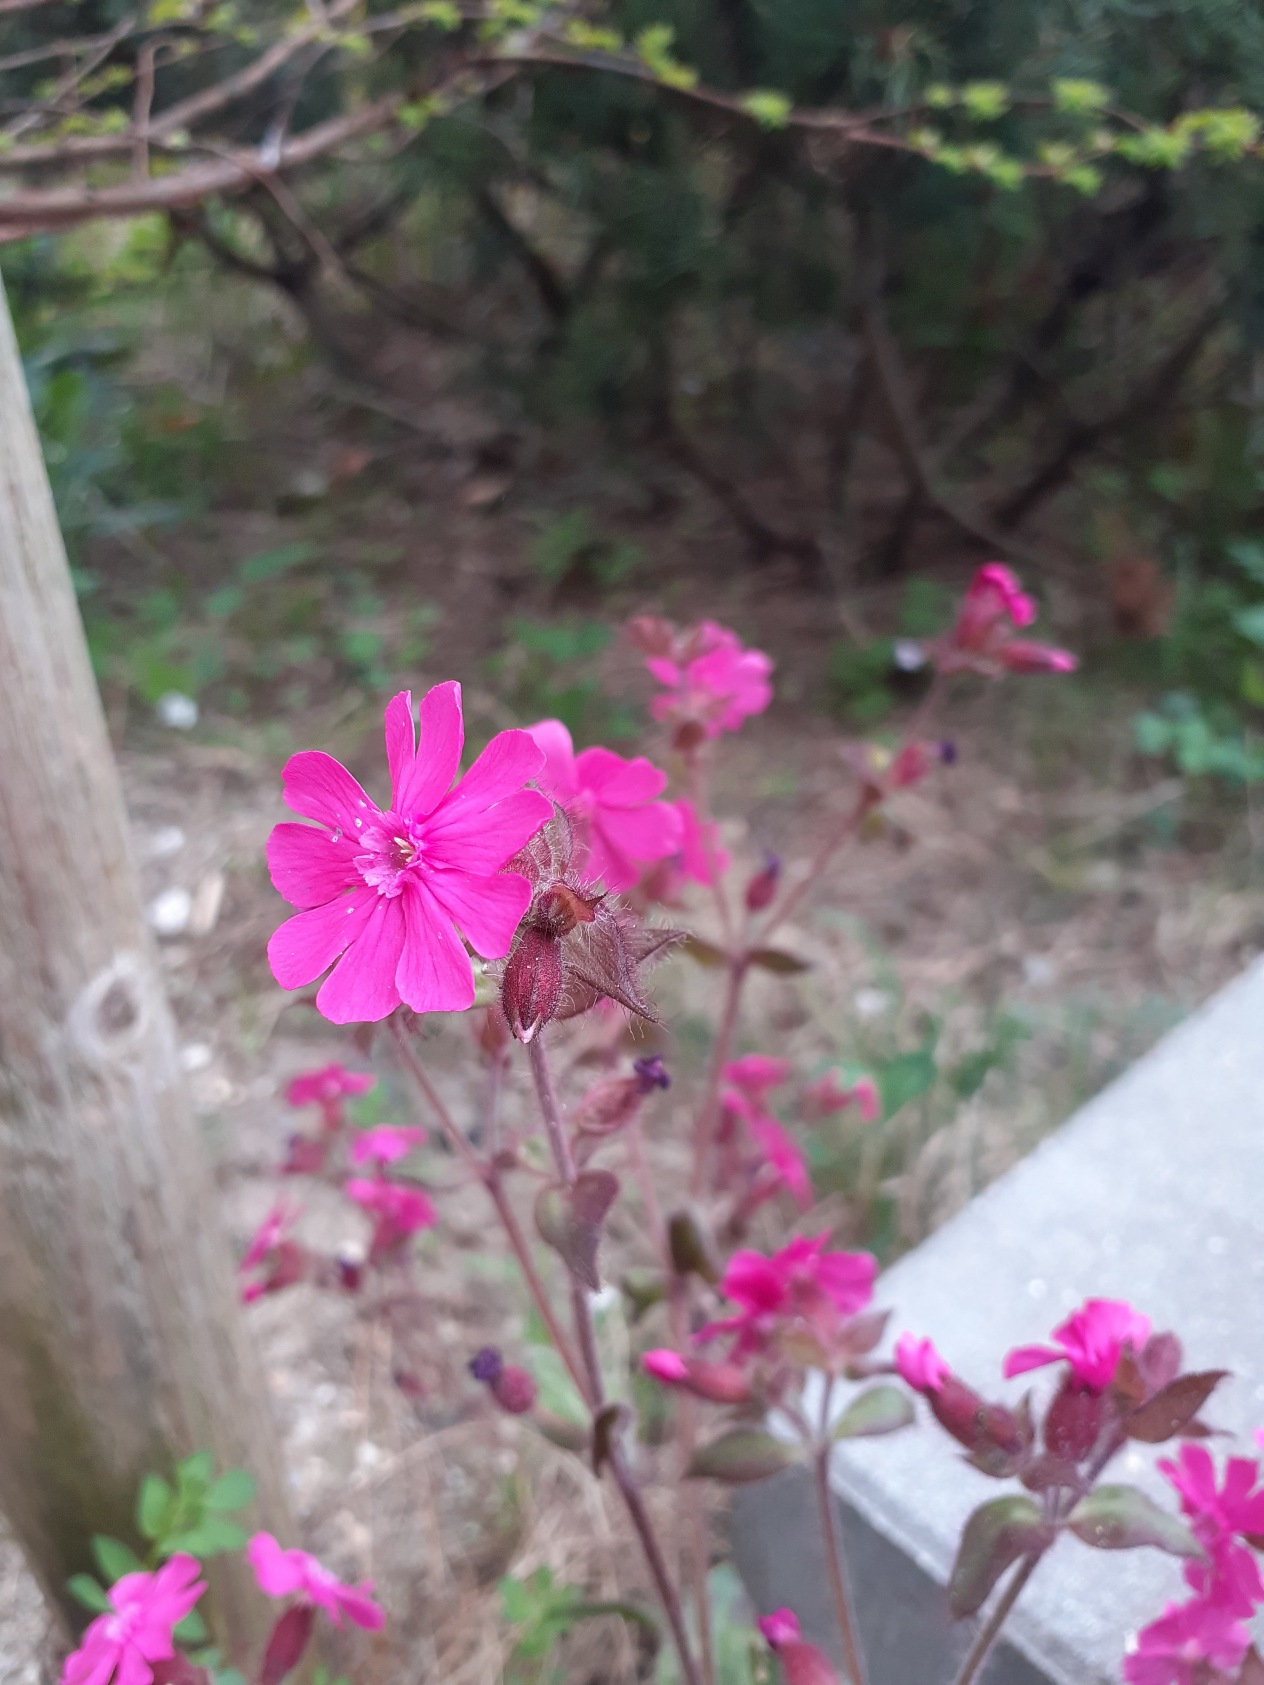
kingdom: Plantae
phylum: Tracheophyta
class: Magnoliopsida
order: Caryophyllales
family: Caryophyllaceae
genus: Silene
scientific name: Silene dioica
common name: Dagpragtstjerne
